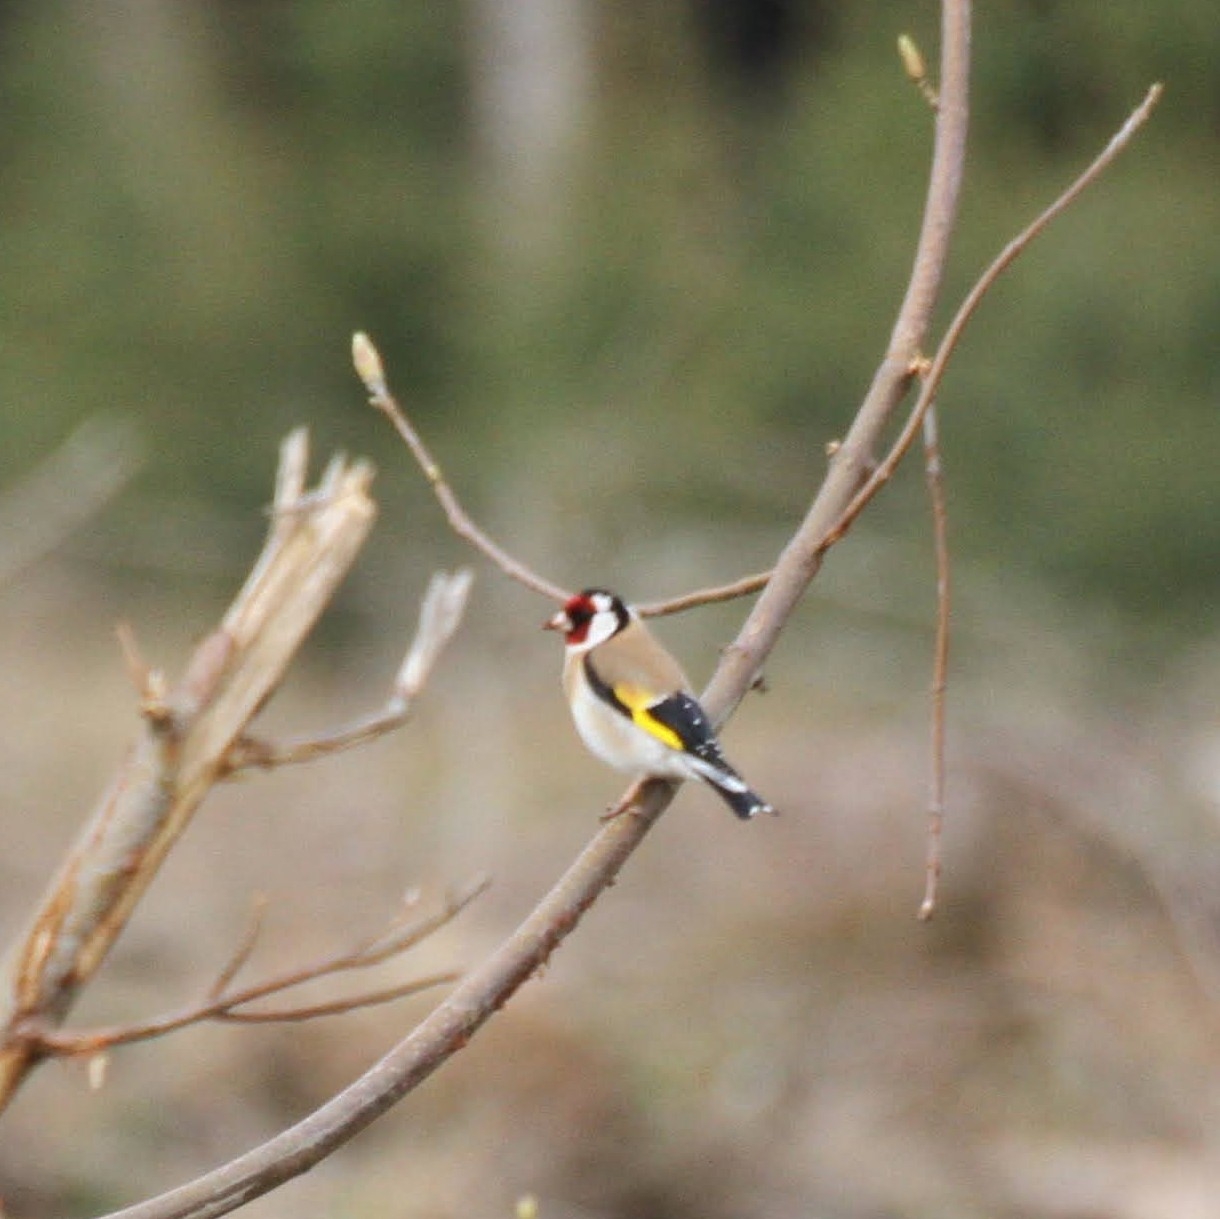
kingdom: Animalia
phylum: Chordata
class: Aves
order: Passeriformes
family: Fringillidae
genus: Carduelis
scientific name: Carduelis carduelis
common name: Stillits
